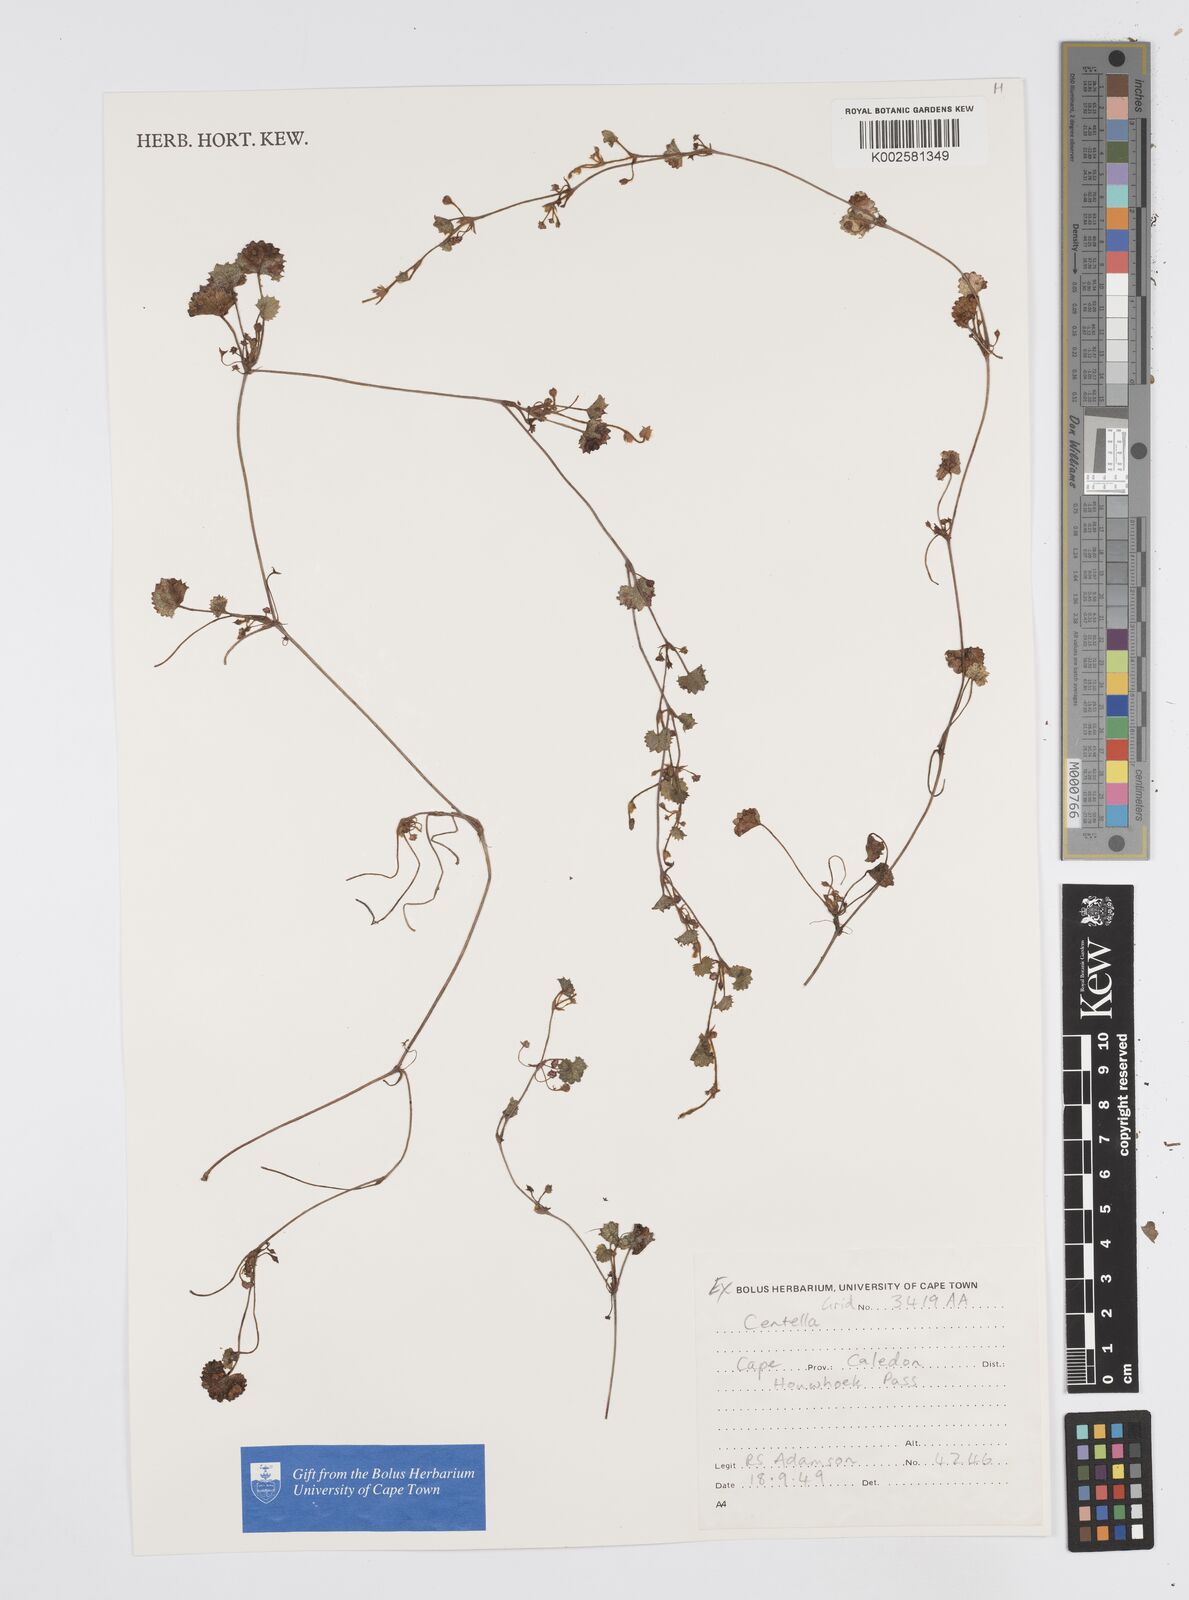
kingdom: Plantae
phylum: Tracheophyta
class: Magnoliopsida
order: Apiales
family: Apiaceae
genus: Centella
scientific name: Centella
